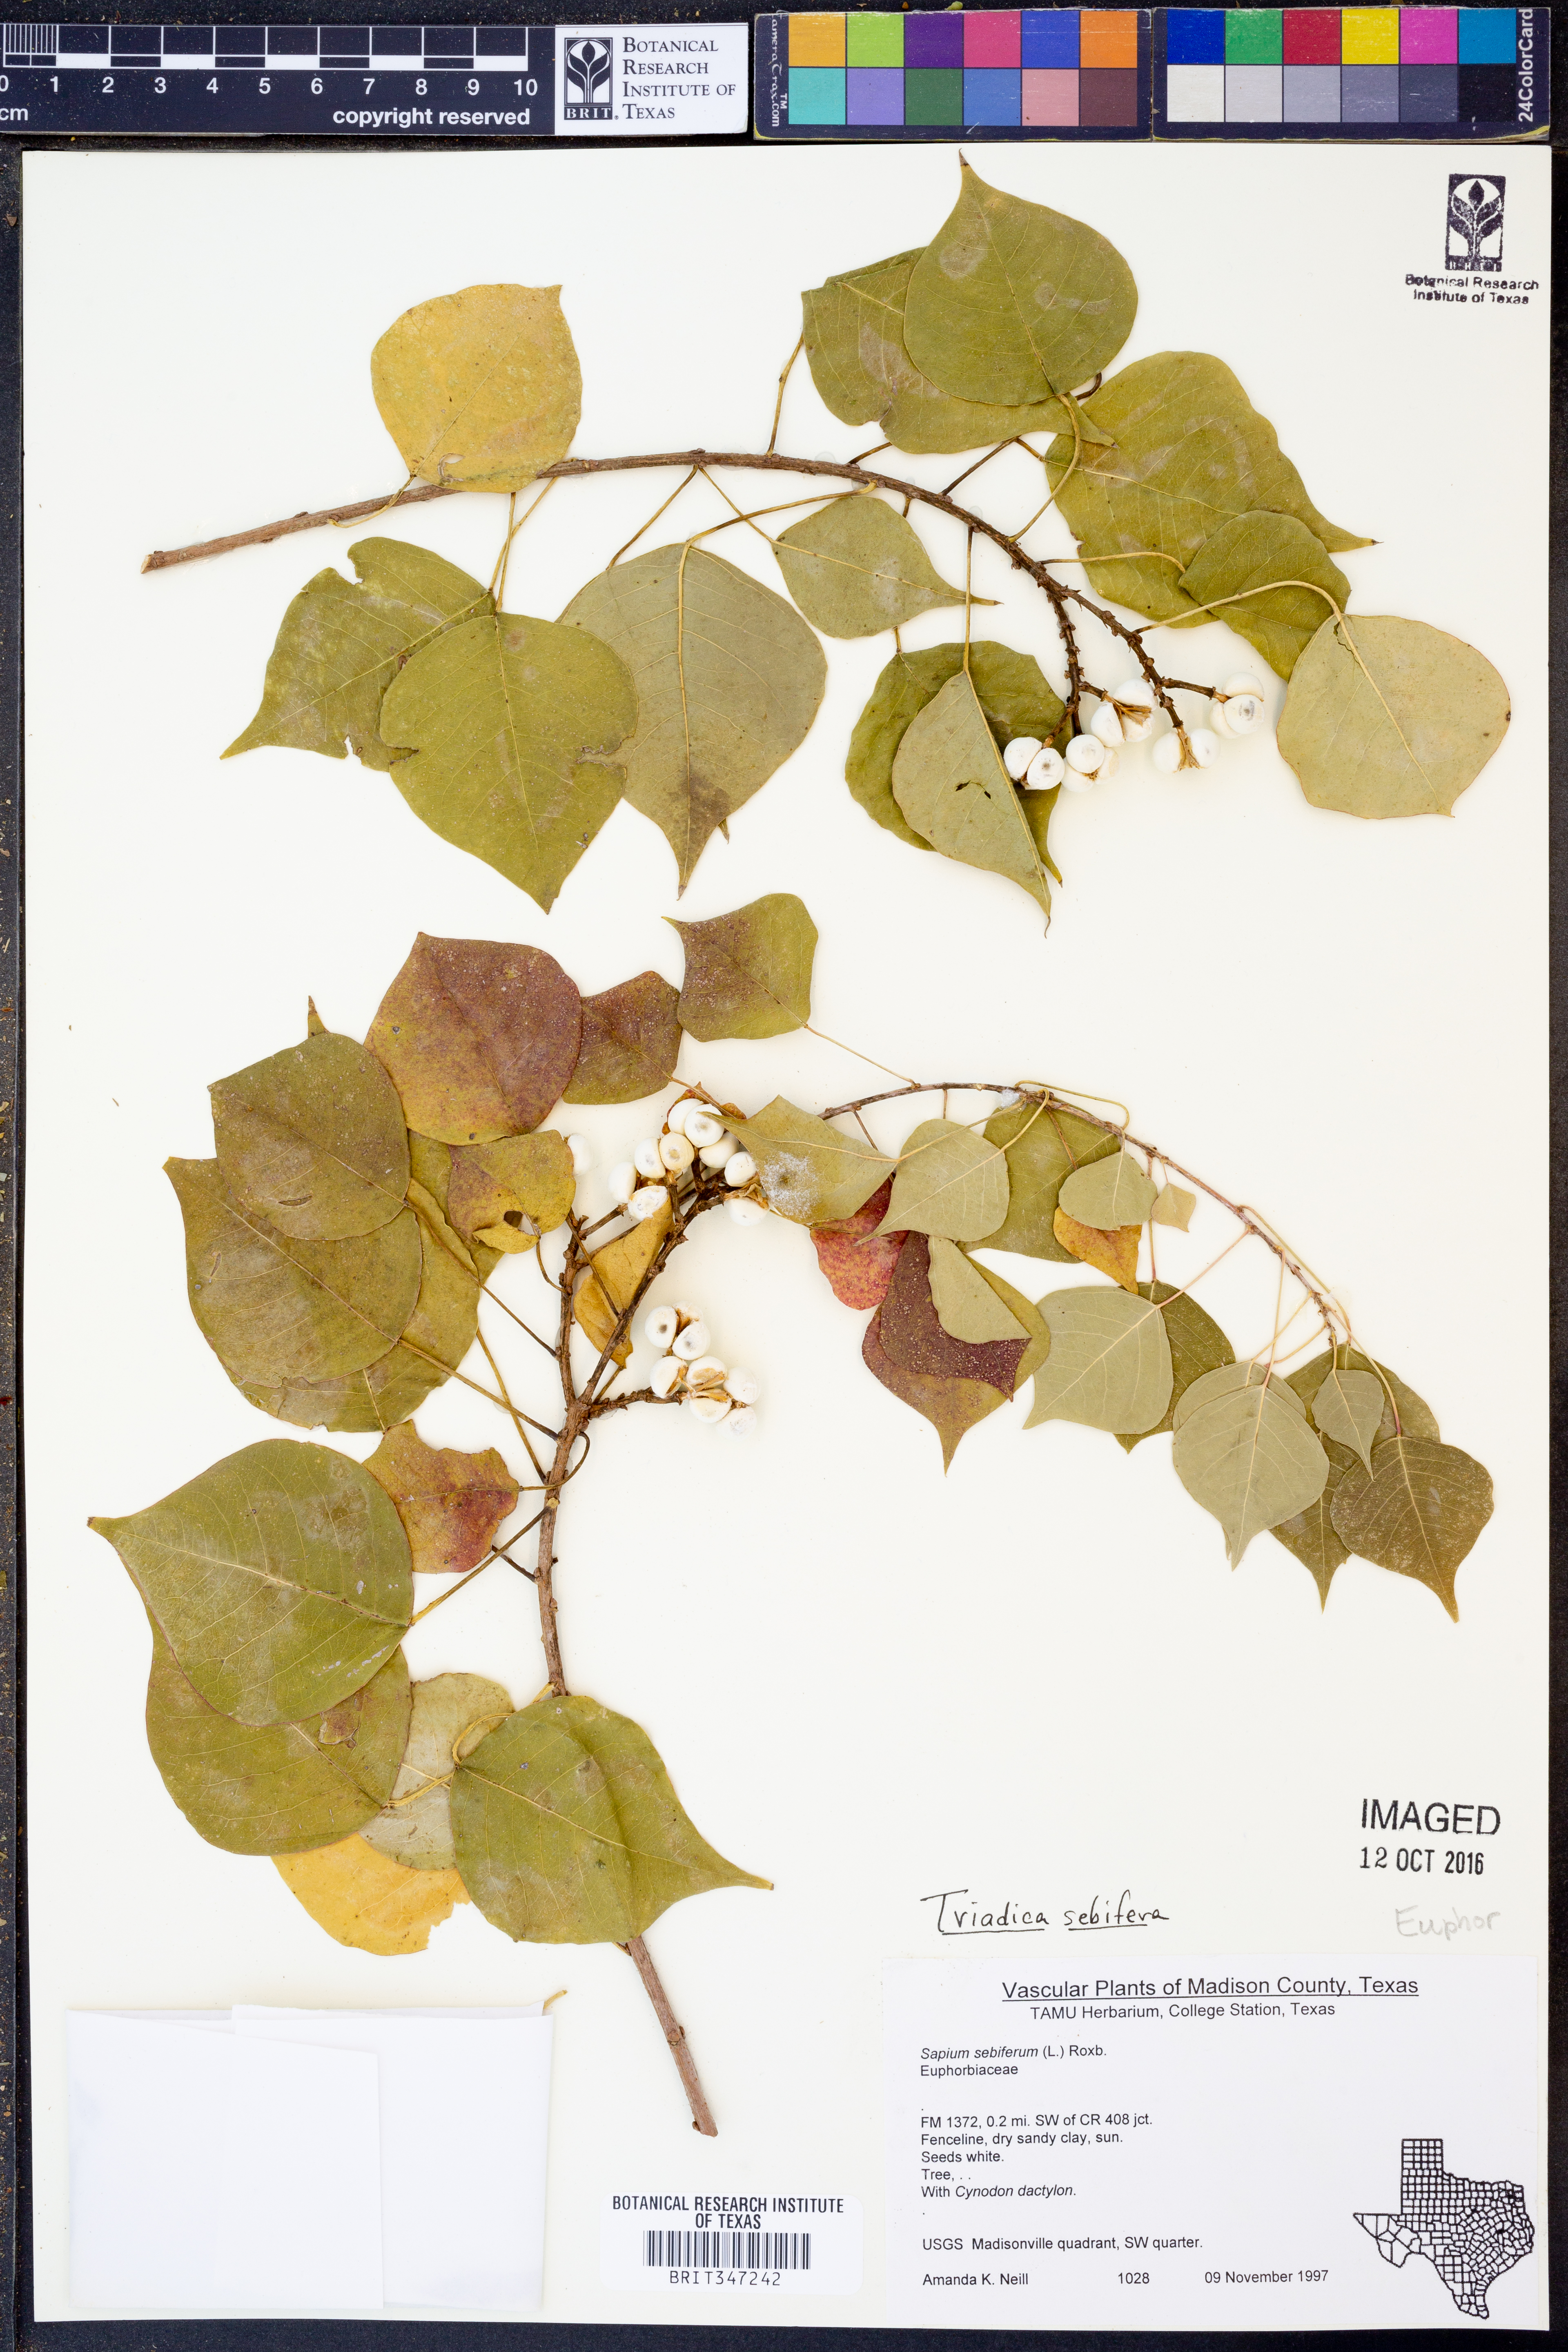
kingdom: Plantae
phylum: Tracheophyta
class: Magnoliopsida
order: Malpighiales
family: Euphorbiaceae
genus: Triadica
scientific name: Triadica sebifera
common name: Chinese tallow
